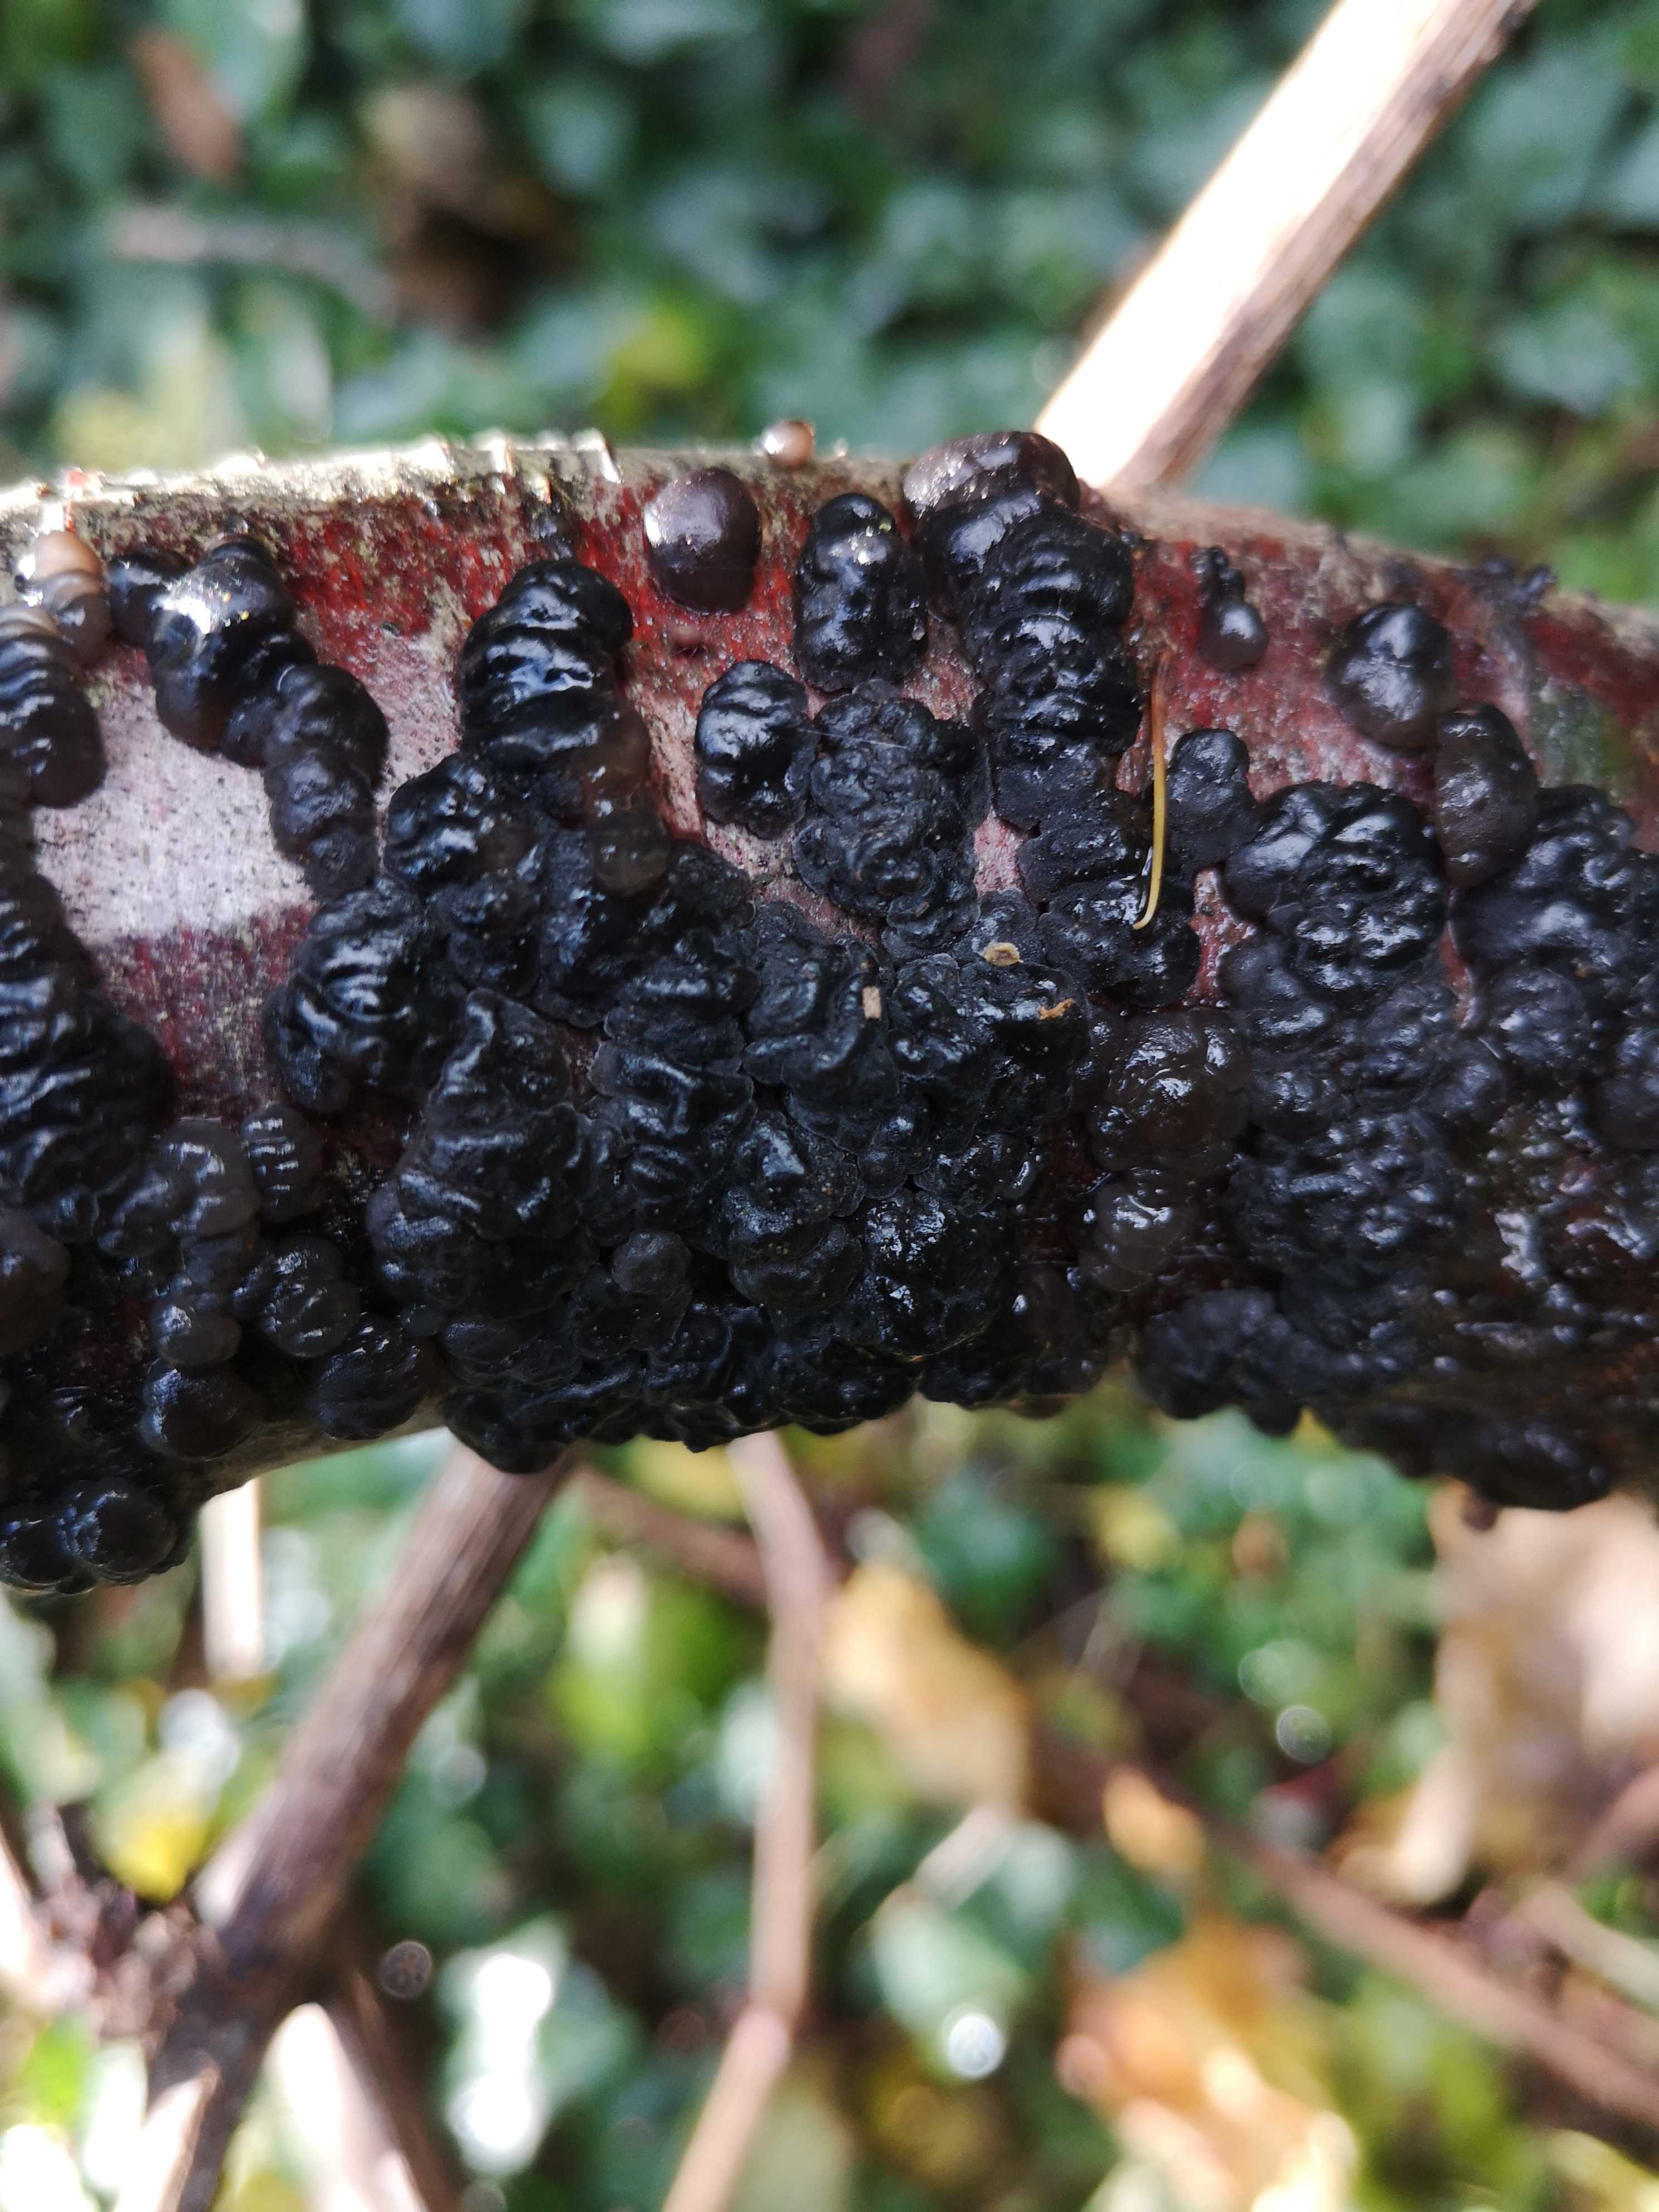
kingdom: Fungi
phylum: Basidiomycota
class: Agaricomycetes
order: Auriculariales
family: Auriculariaceae
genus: Exidia
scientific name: Exidia nigricans
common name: almindelig bævretop
